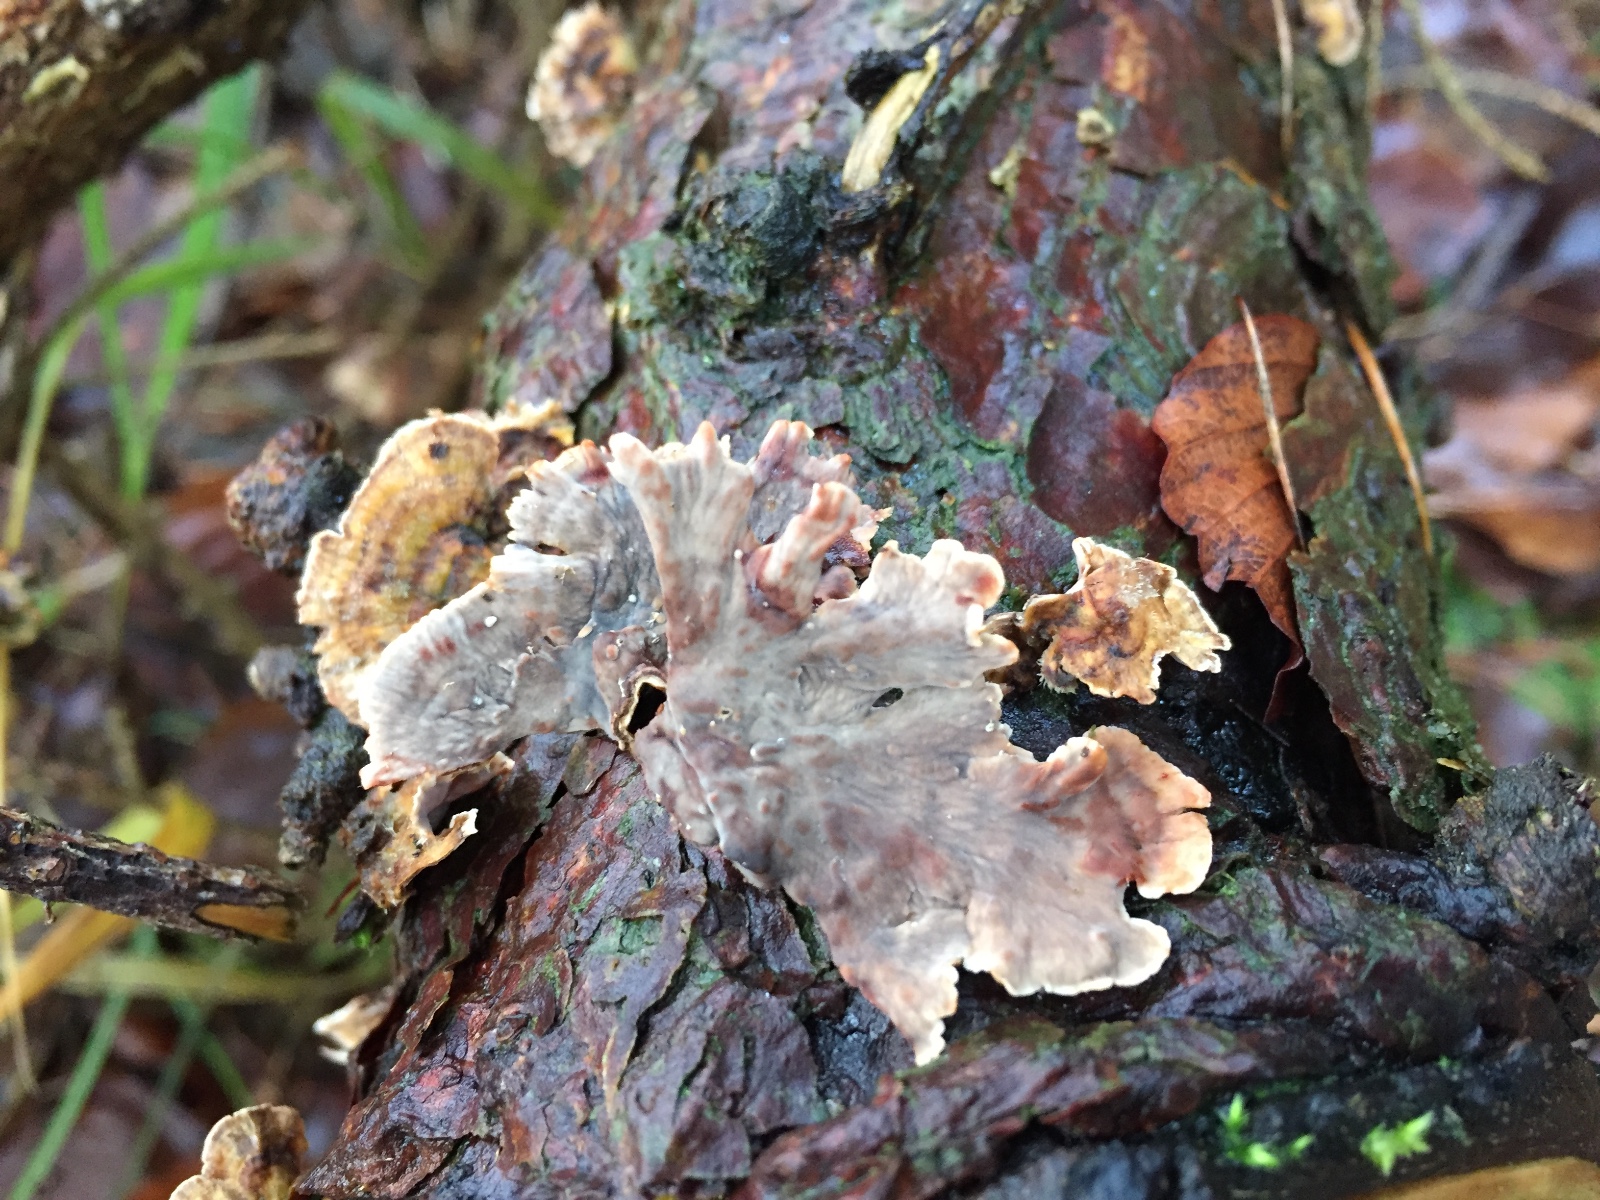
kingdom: Fungi
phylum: Basidiomycota
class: Agaricomycetes
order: Russulales
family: Stereaceae
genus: Stereum
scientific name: Stereum sanguinolentum
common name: blødende lædersvamp
